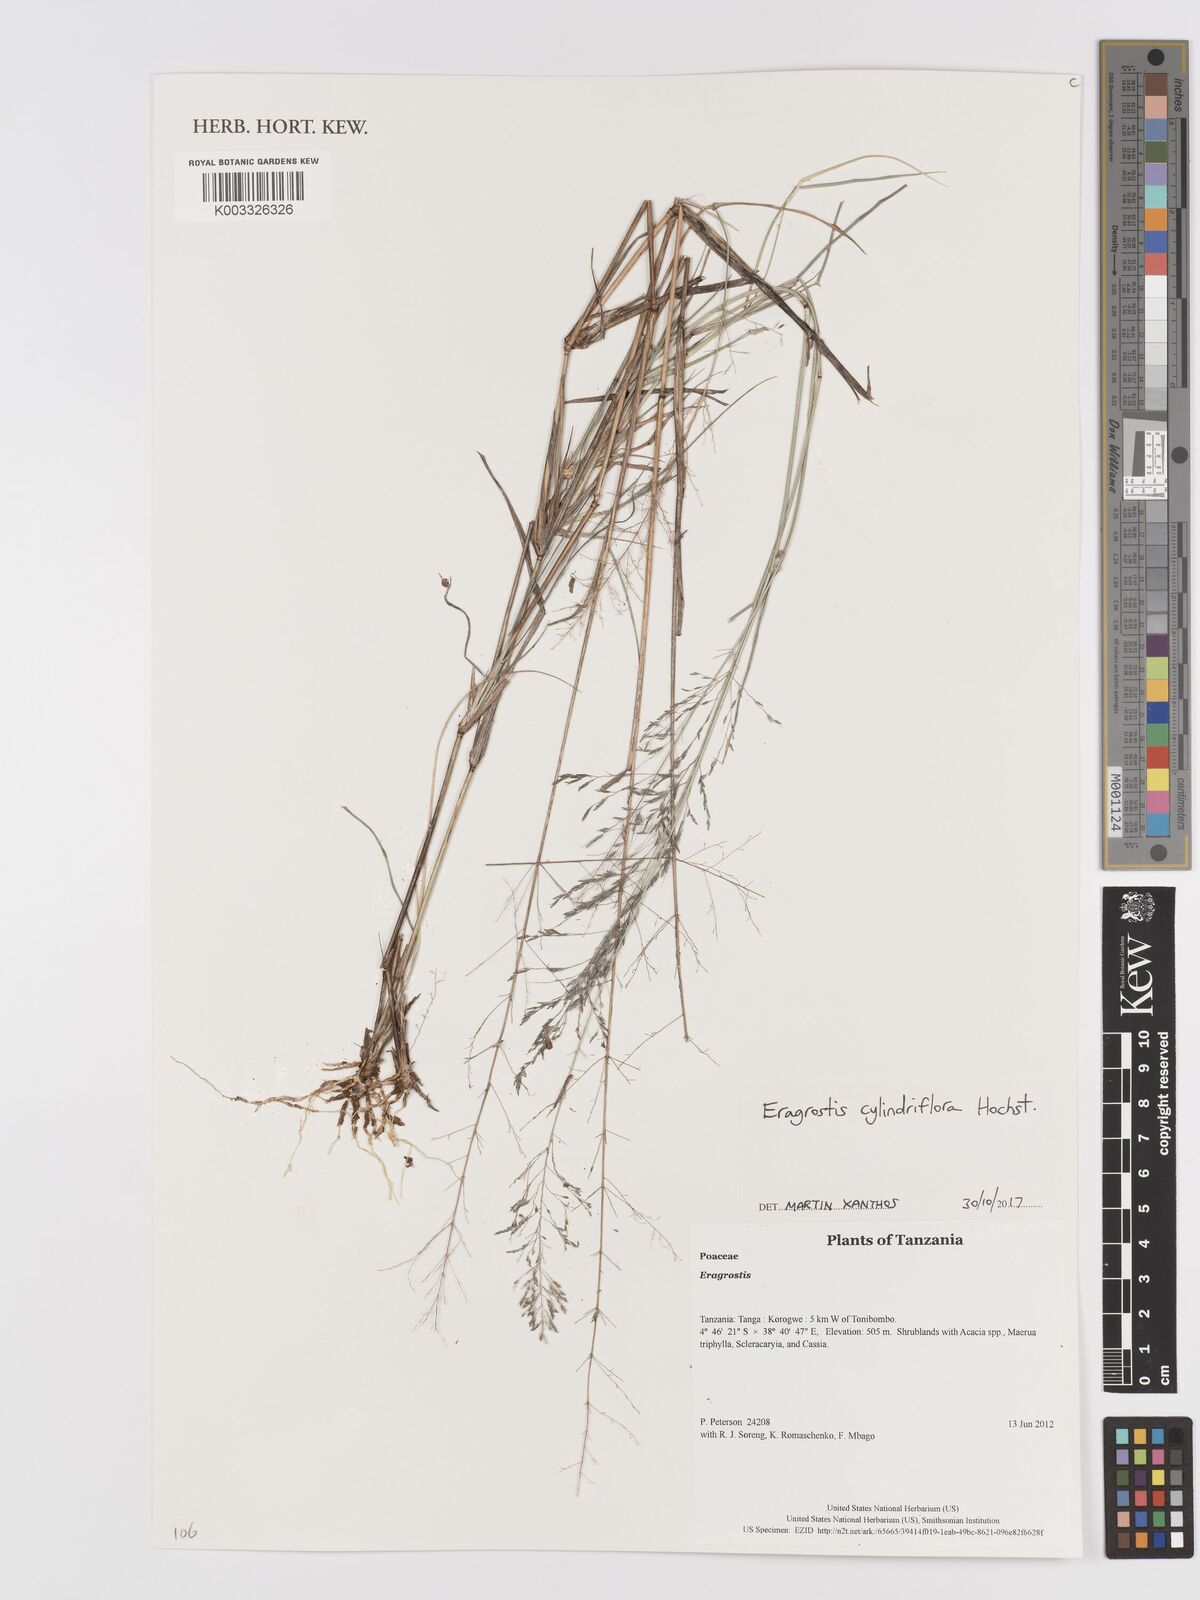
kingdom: Plantae
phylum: Tracheophyta
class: Liliopsida
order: Poales
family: Poaceae
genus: Eragrostis
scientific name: Eragrostis cylindriflora
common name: Cylinderflower lovegrass
